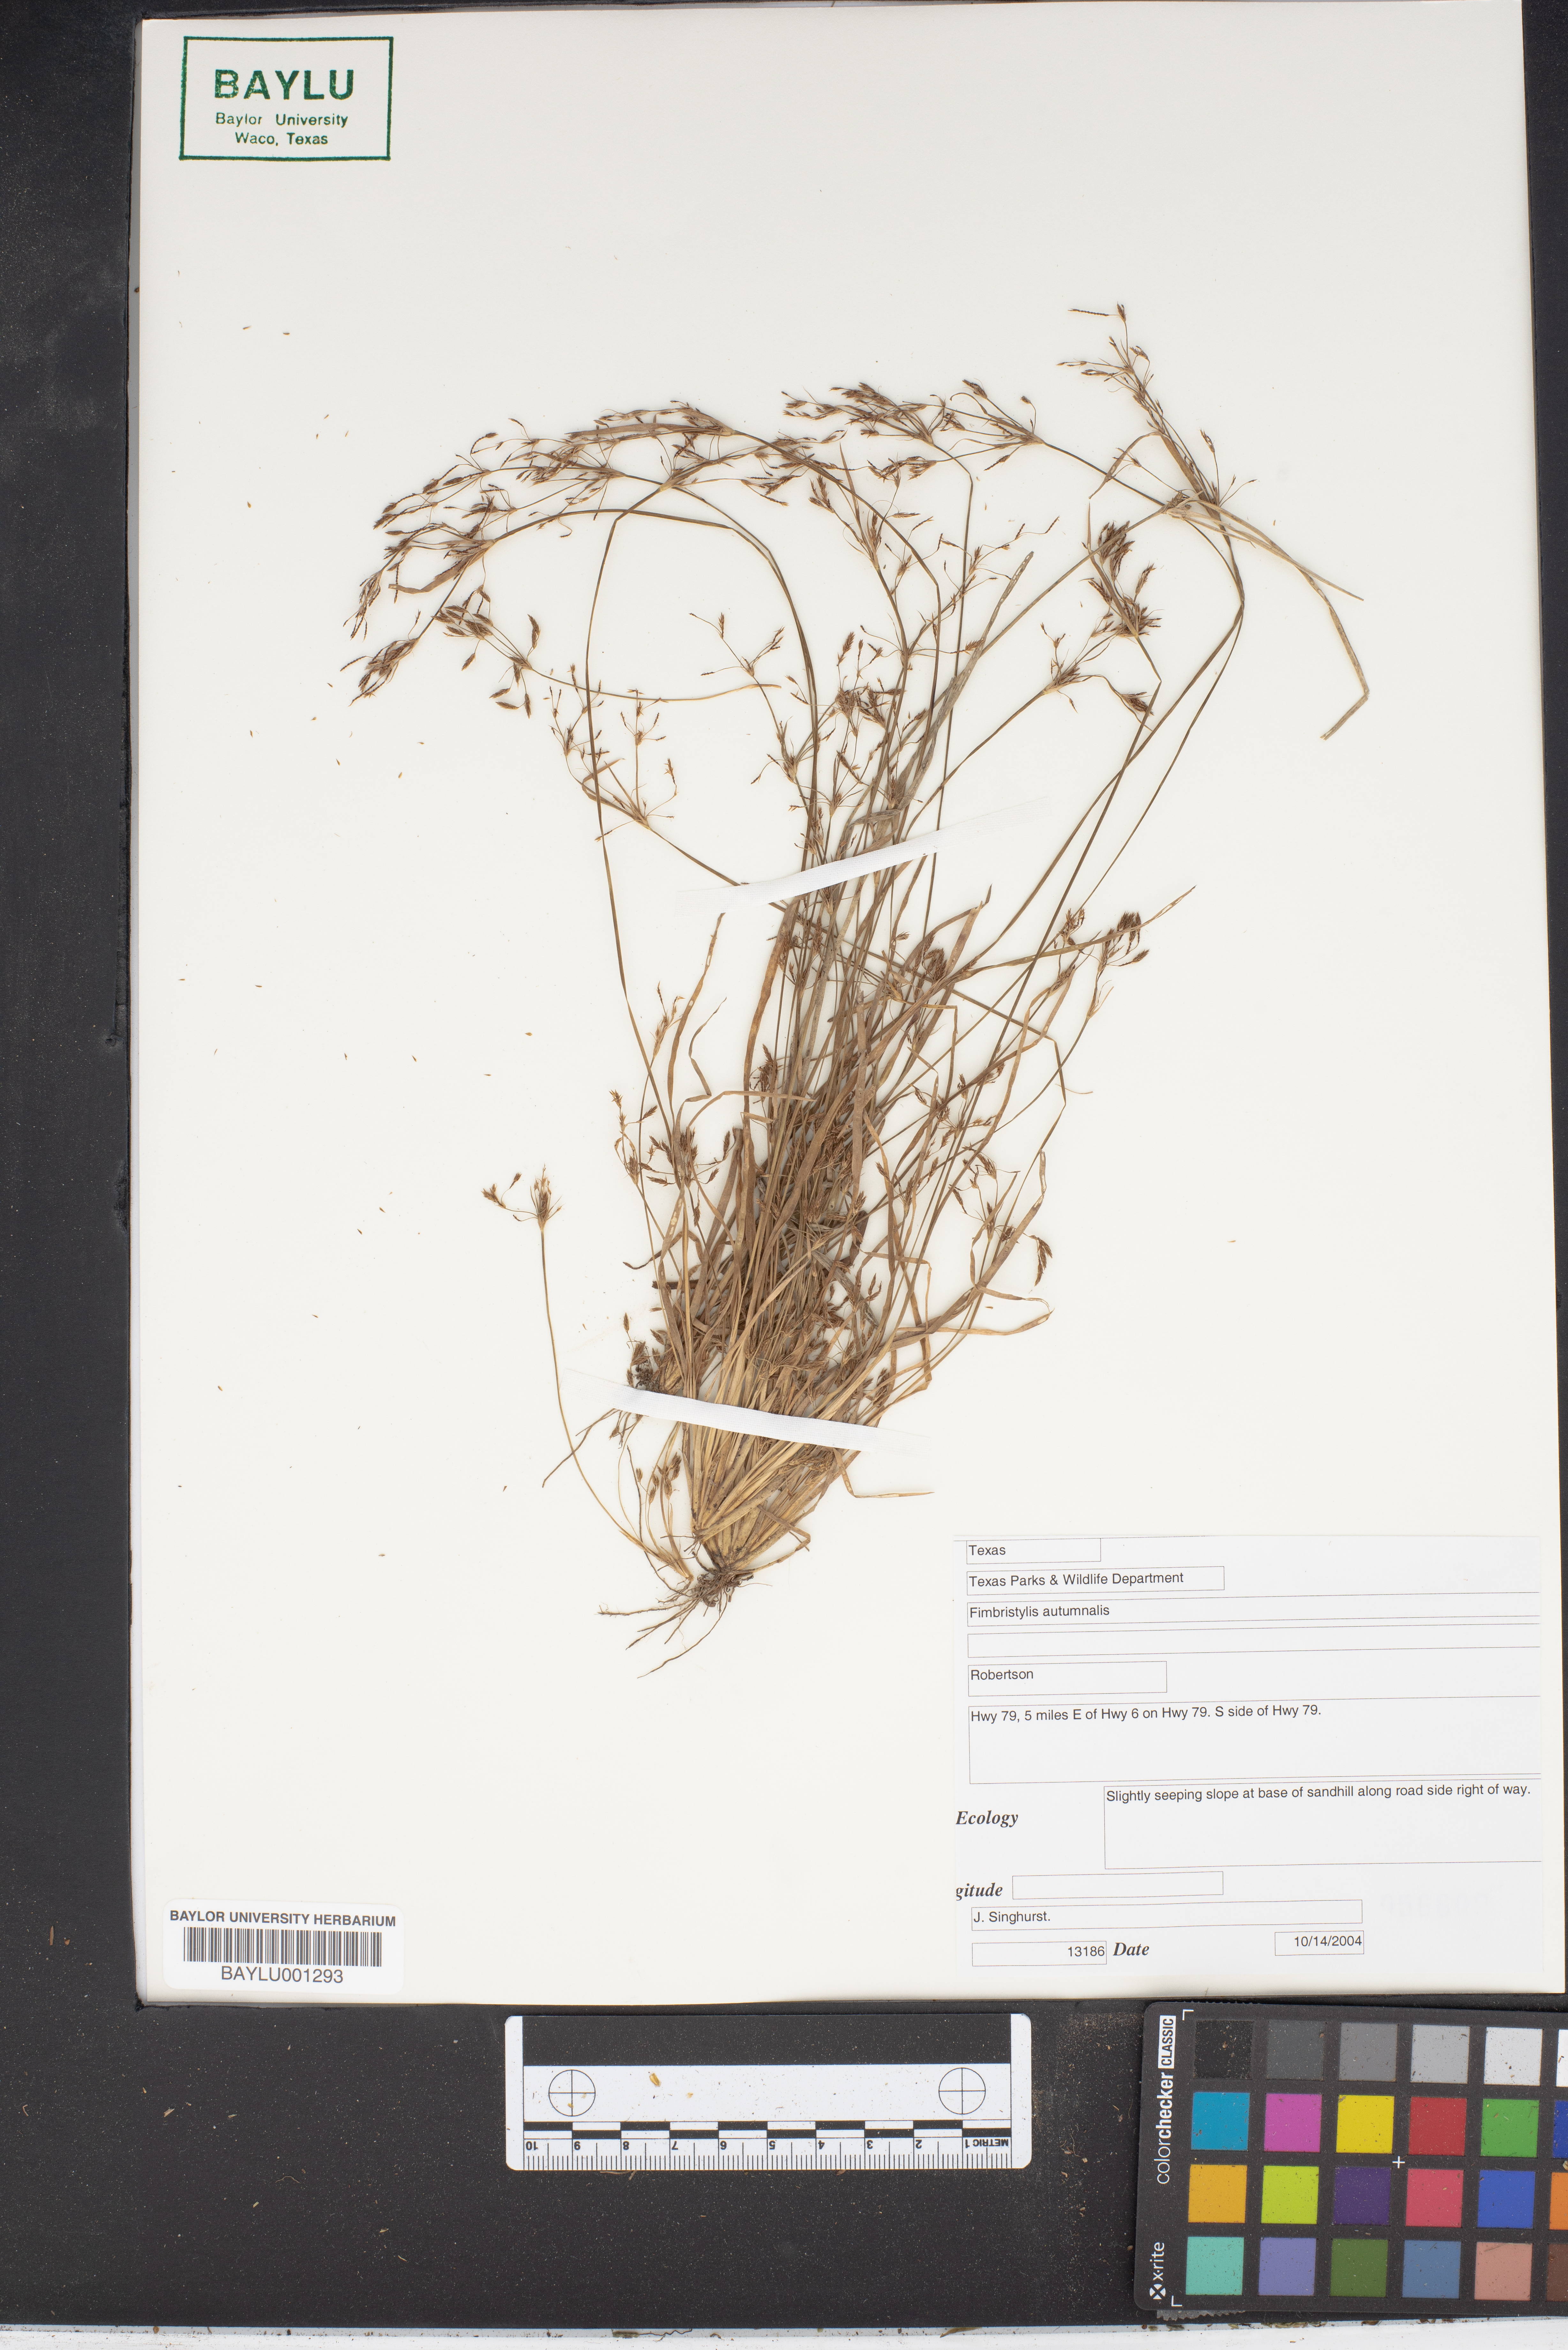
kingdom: Plantae
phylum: Tracheophyta
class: Liliopsida
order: Poales
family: Cyperaceae
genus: Fimbristylis
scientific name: Fimbristylis autumnalis
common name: Slender fimbristylis
